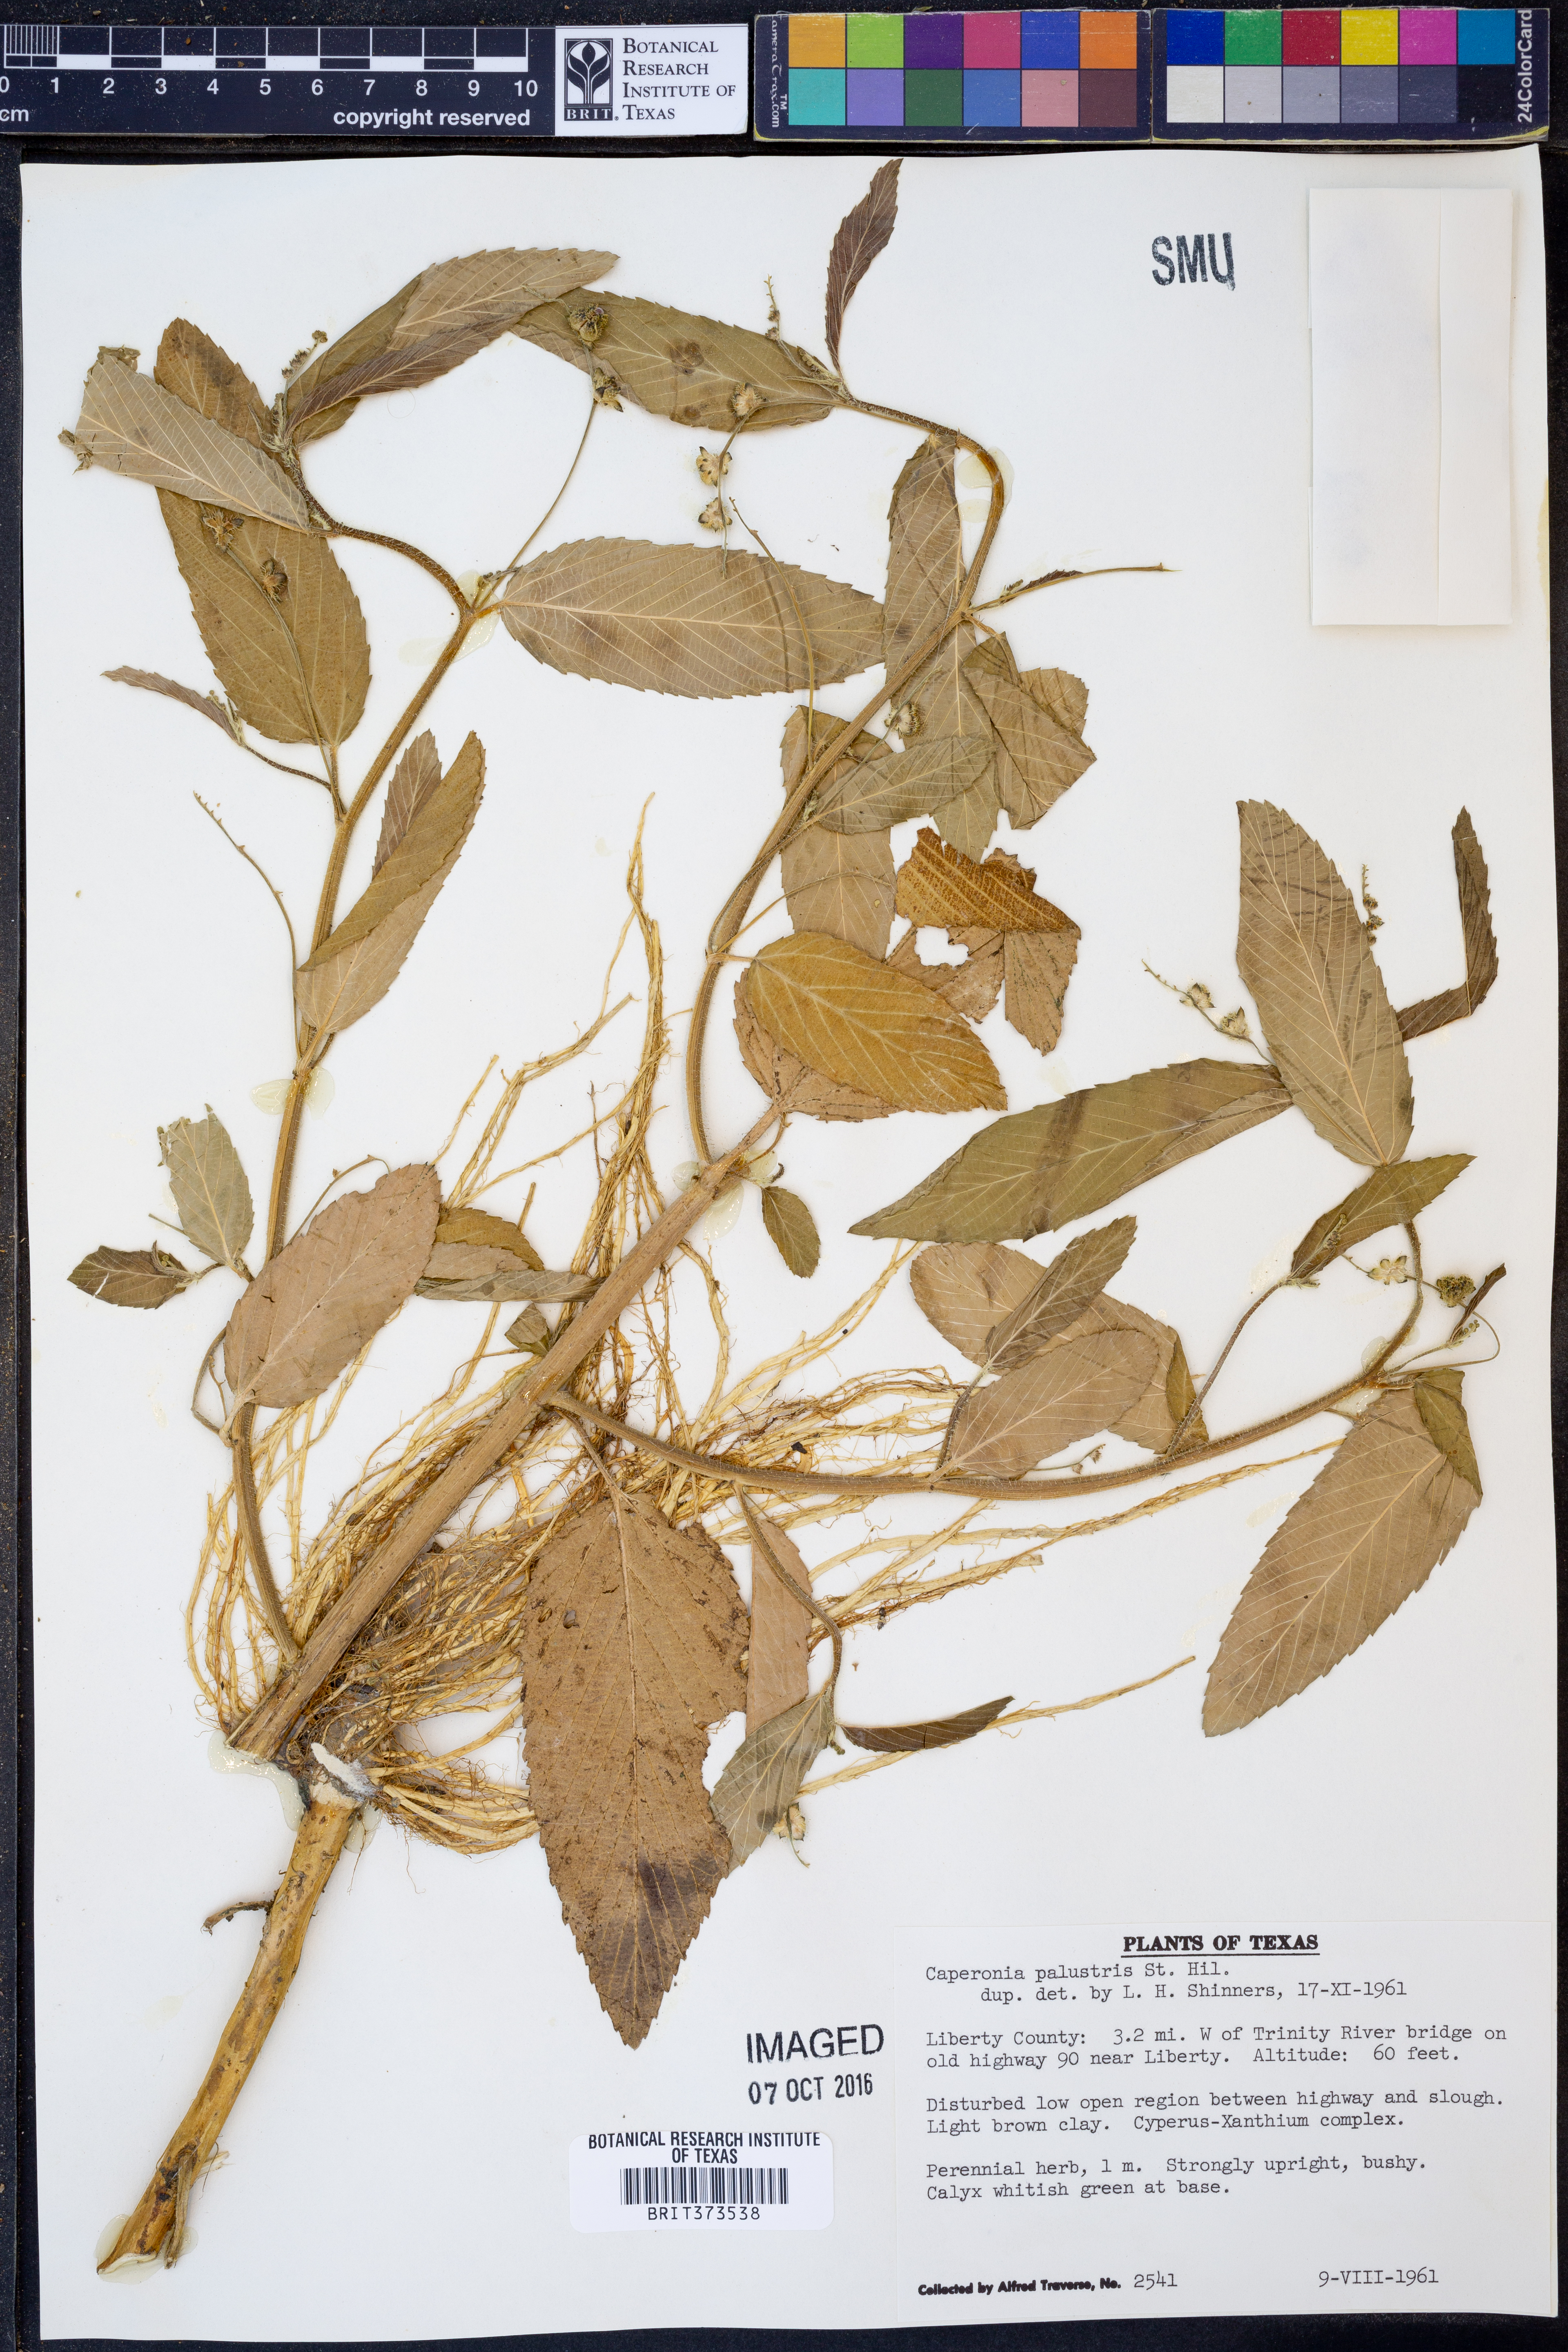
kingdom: Plantae
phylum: Tracheophyta
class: Magnoliopsida
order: Malpighiales
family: Euphorbiaceae
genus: Caperonia
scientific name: Caperonia palustris
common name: Sacatrapo
